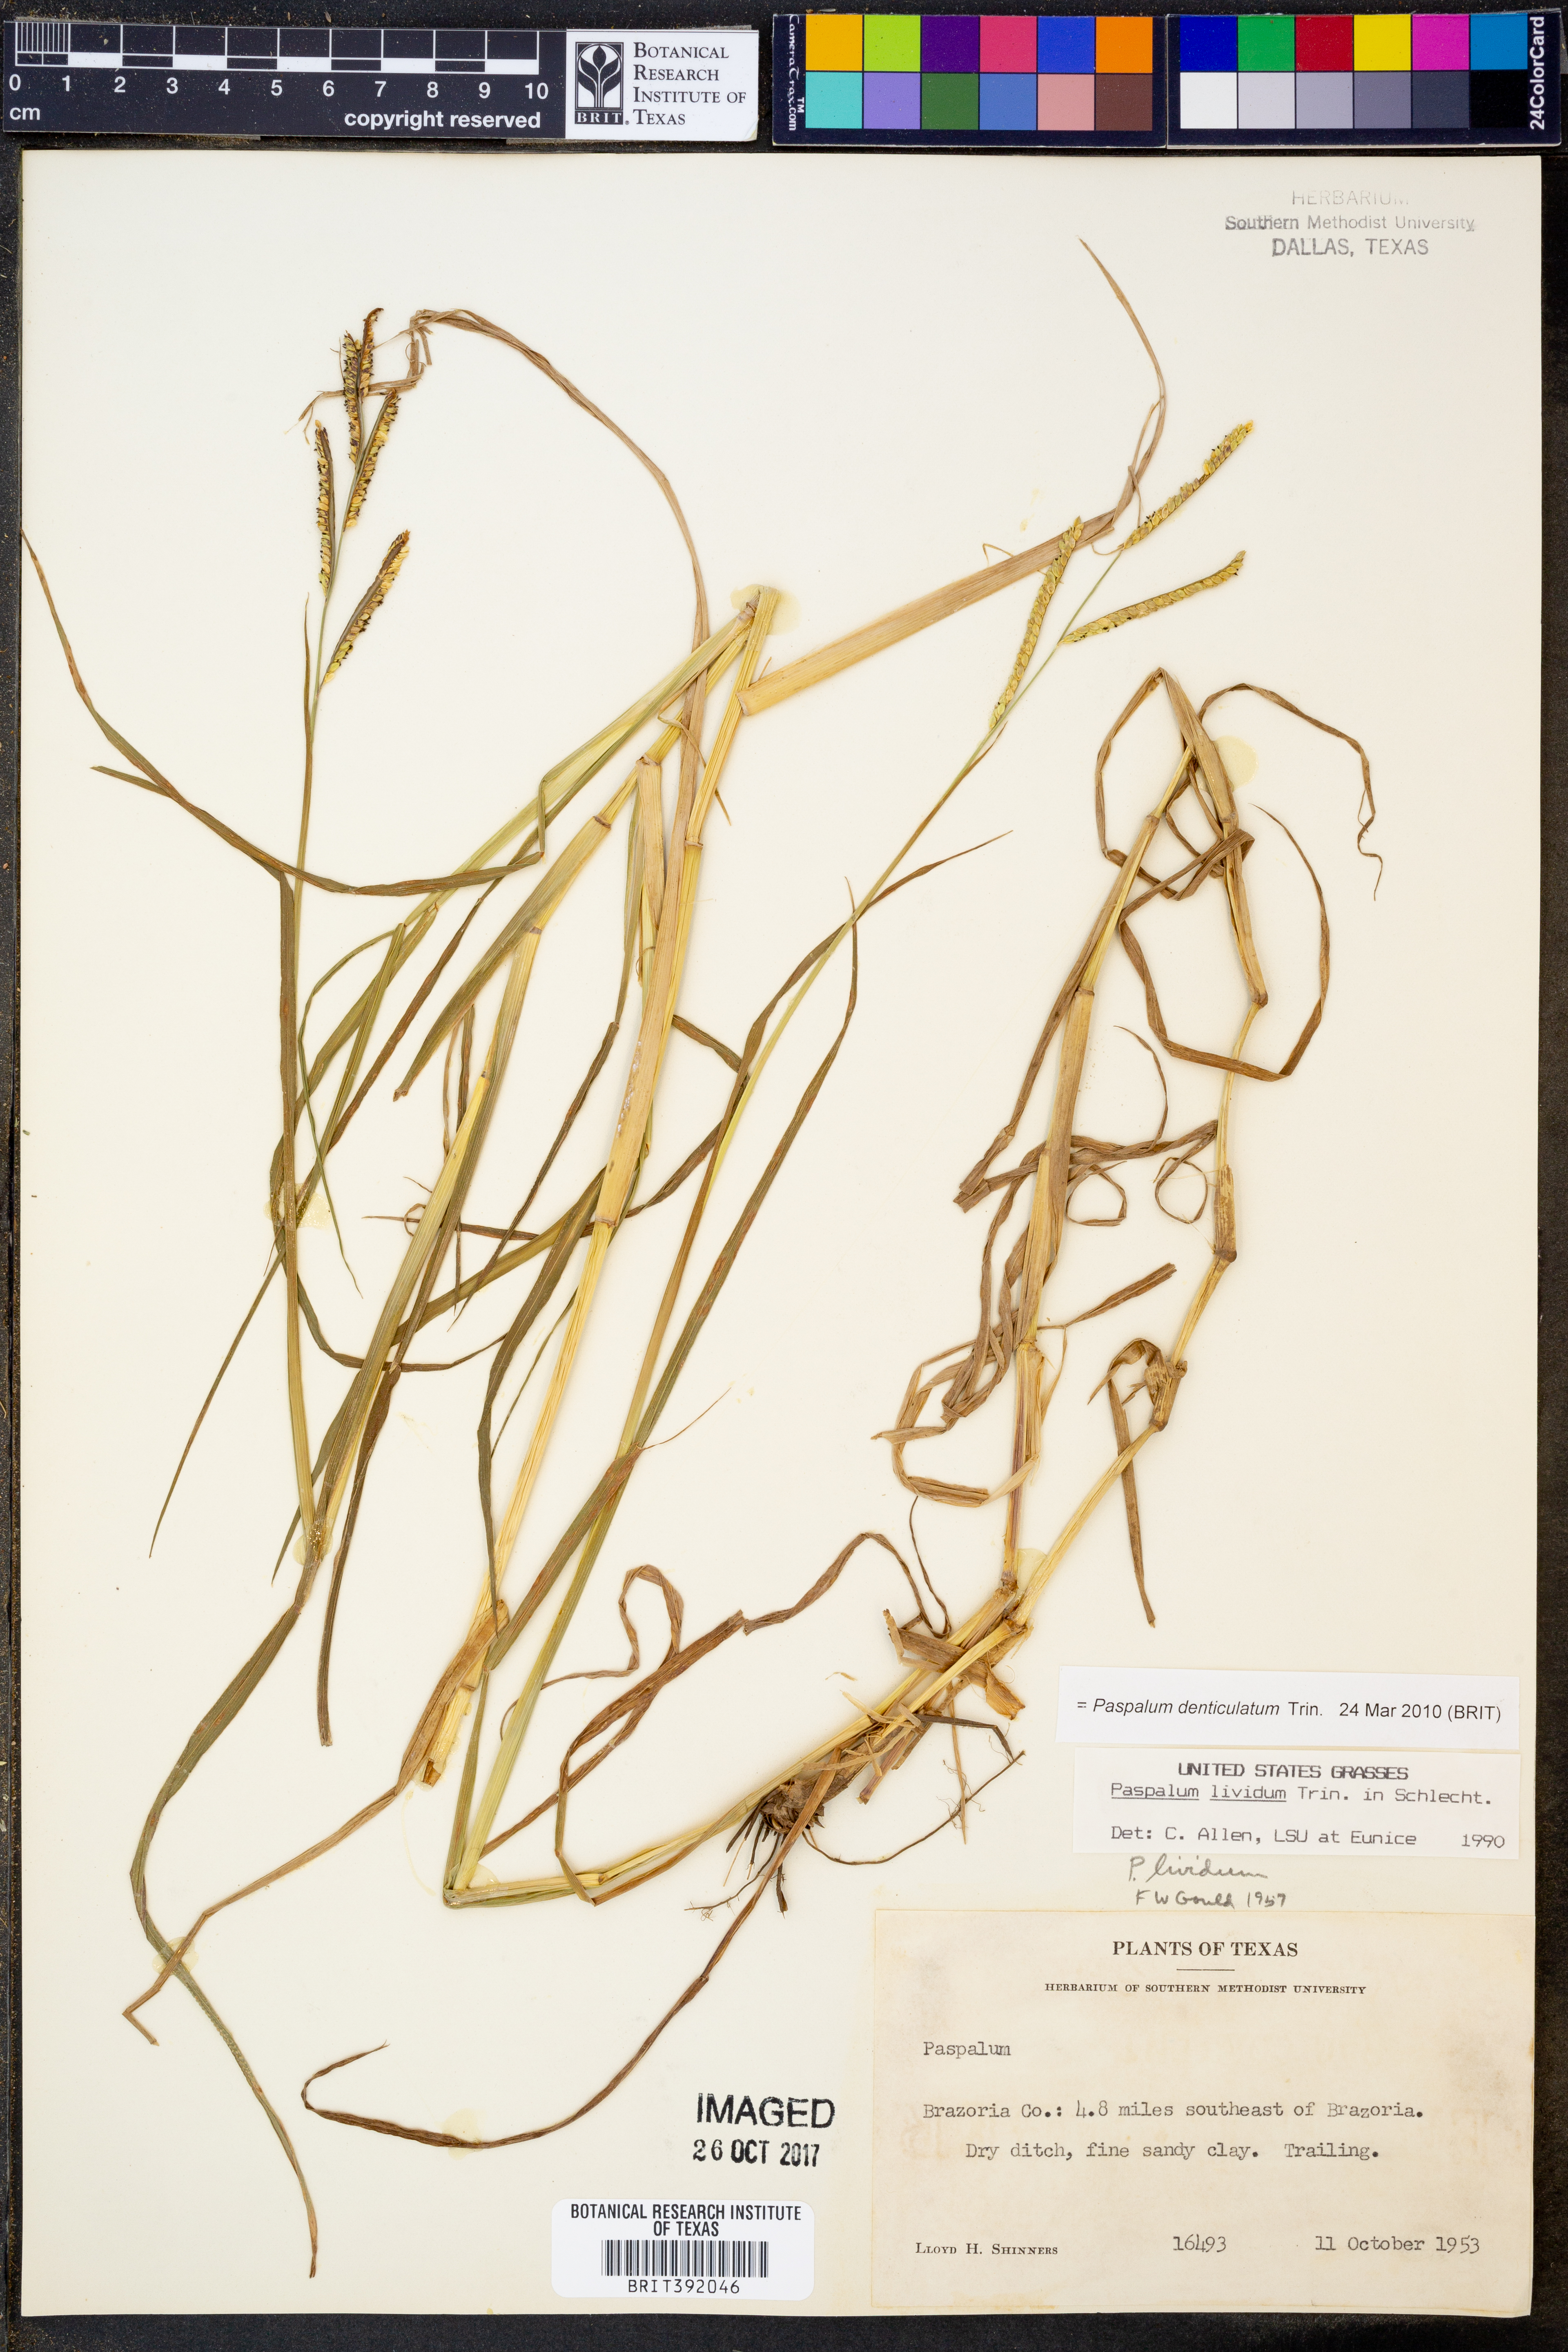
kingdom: Plantae
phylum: Tracheophyta
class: Liliopsida
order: Poales
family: Poaceae
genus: Paspalum
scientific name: Paspalum denticulatum
